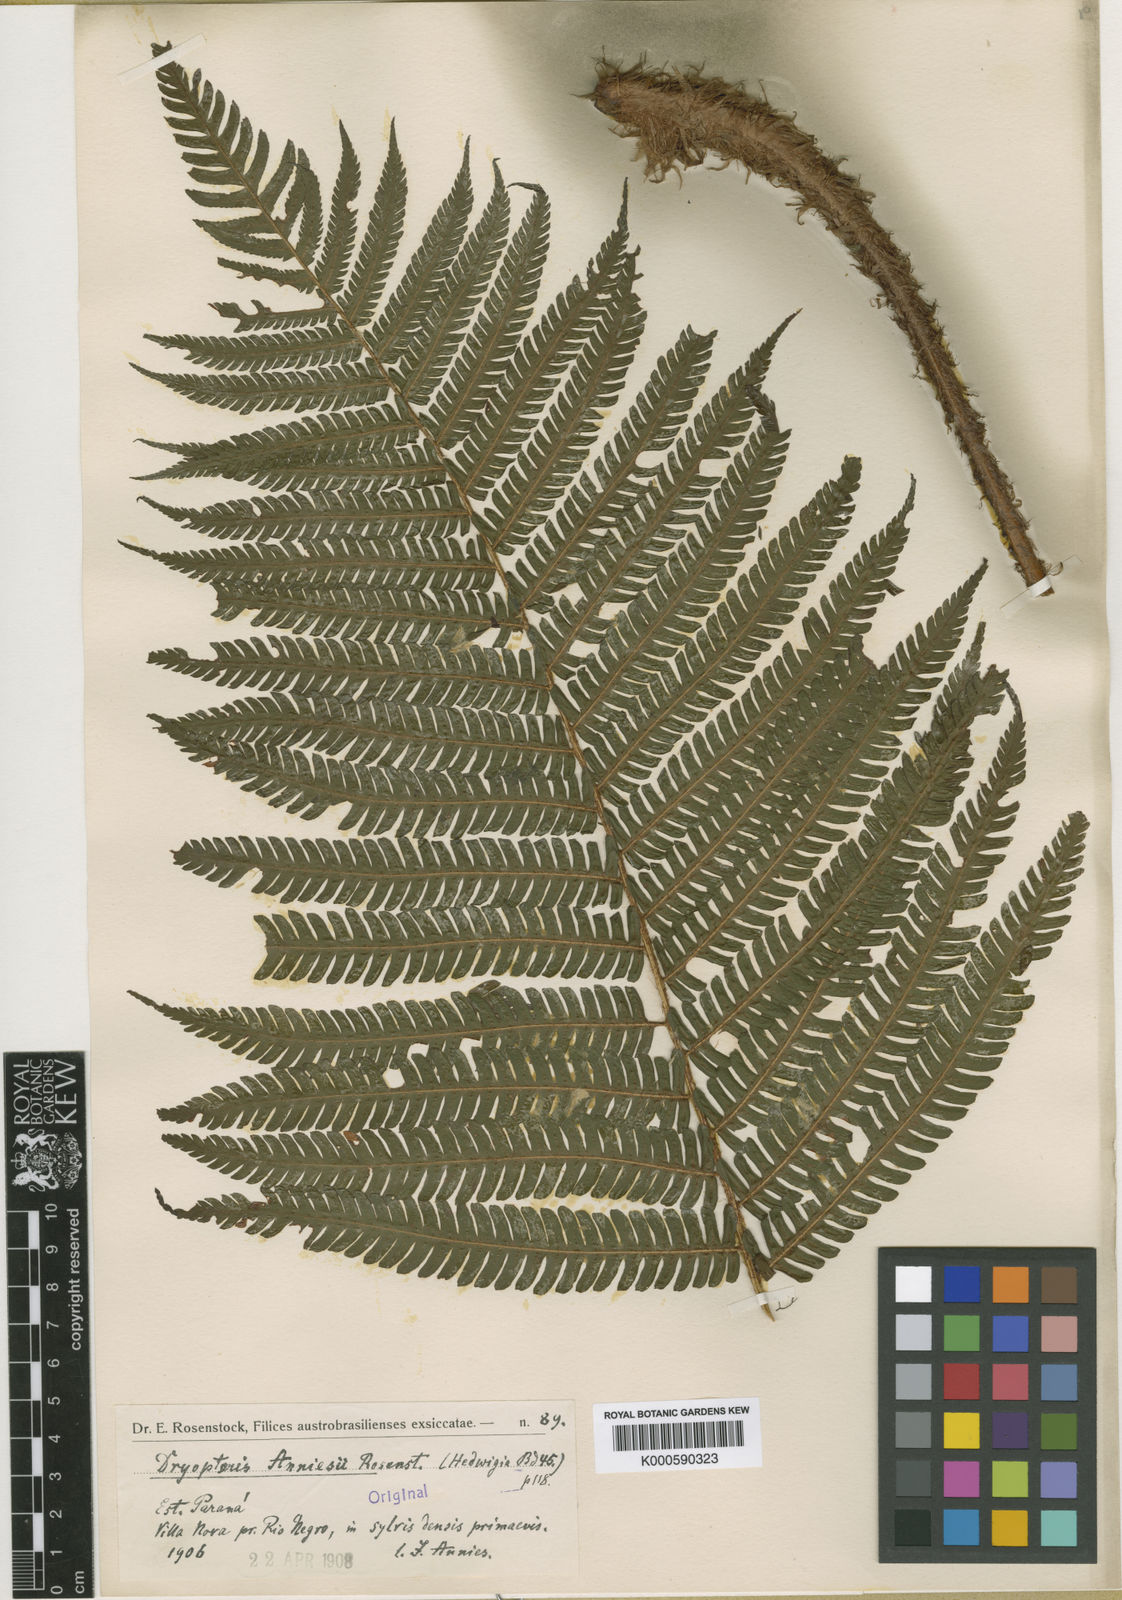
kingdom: Plantae
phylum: Tracheophyta
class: Polypodiopsida
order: Polypodiales
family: Dryopteridaceae
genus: Ctenitis
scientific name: Ctenitis anniesii
